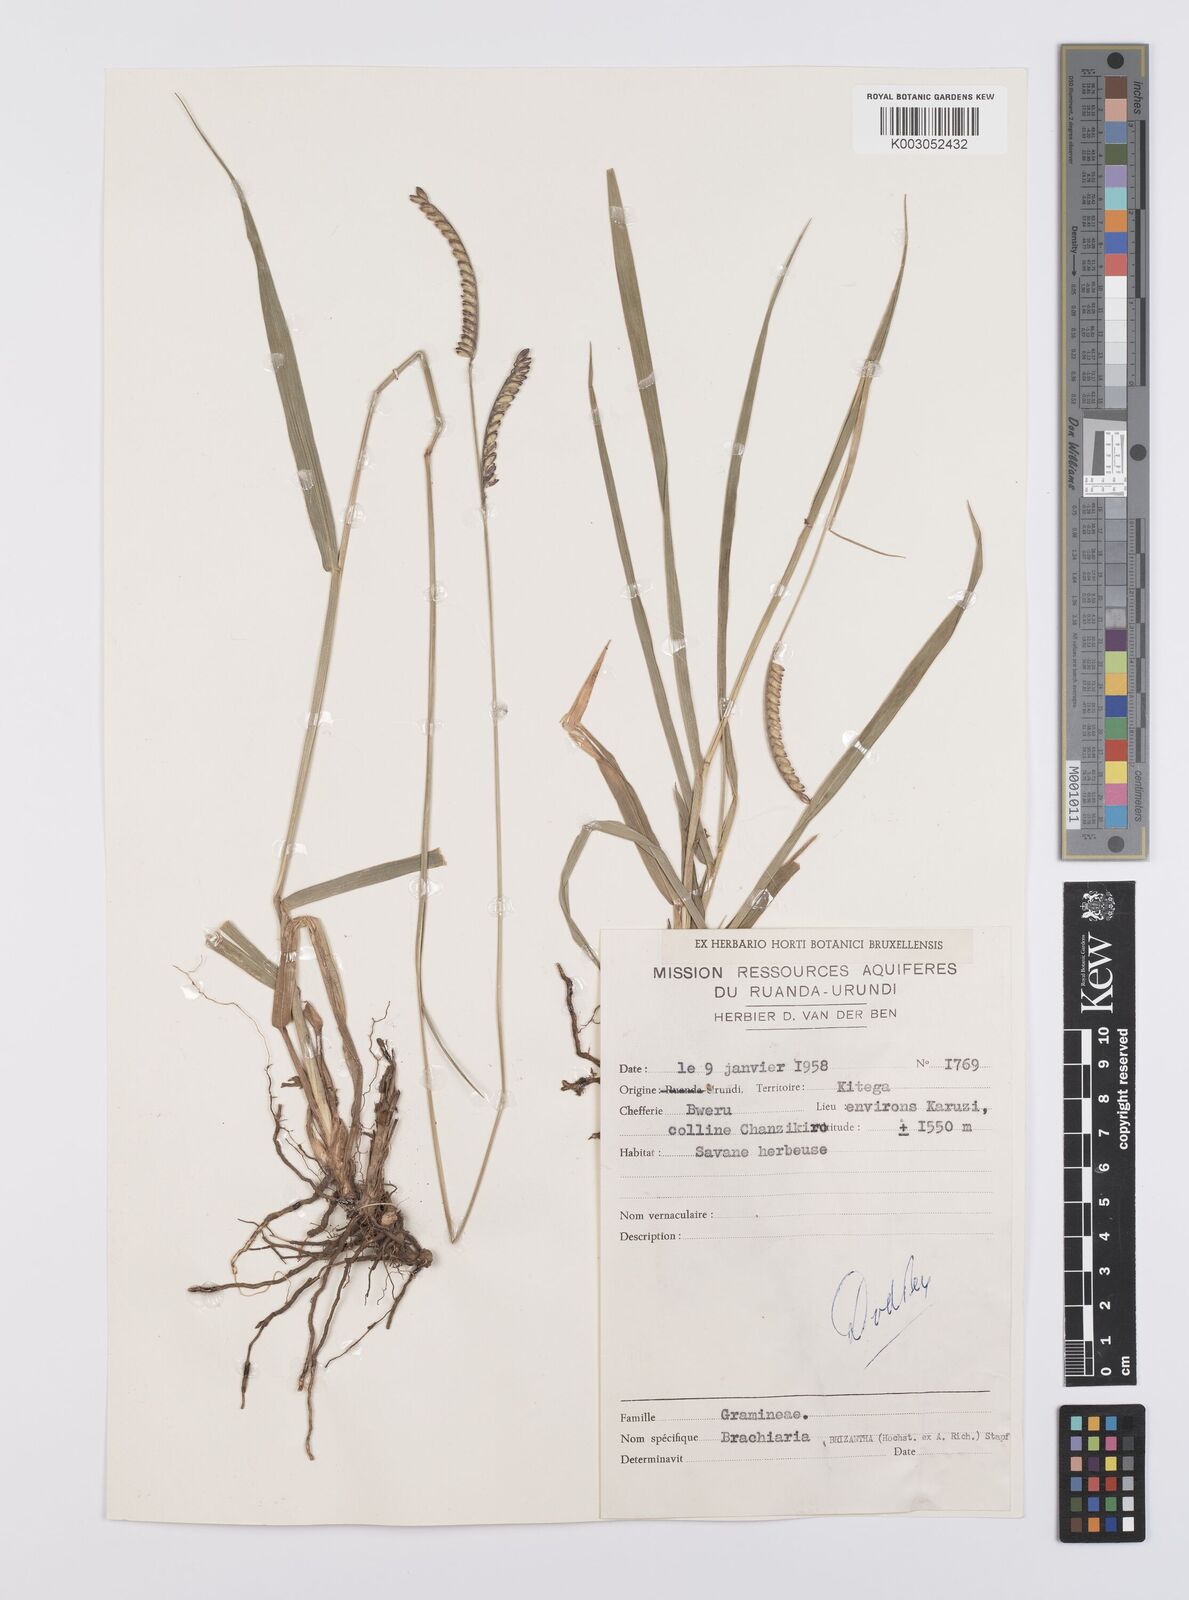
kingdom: Plantae
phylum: Tracheophyta
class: Liliopsida
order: Poales
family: Poaceae
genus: Urochloa
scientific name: Urochloa brizantha
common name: Palisade signalgrass
